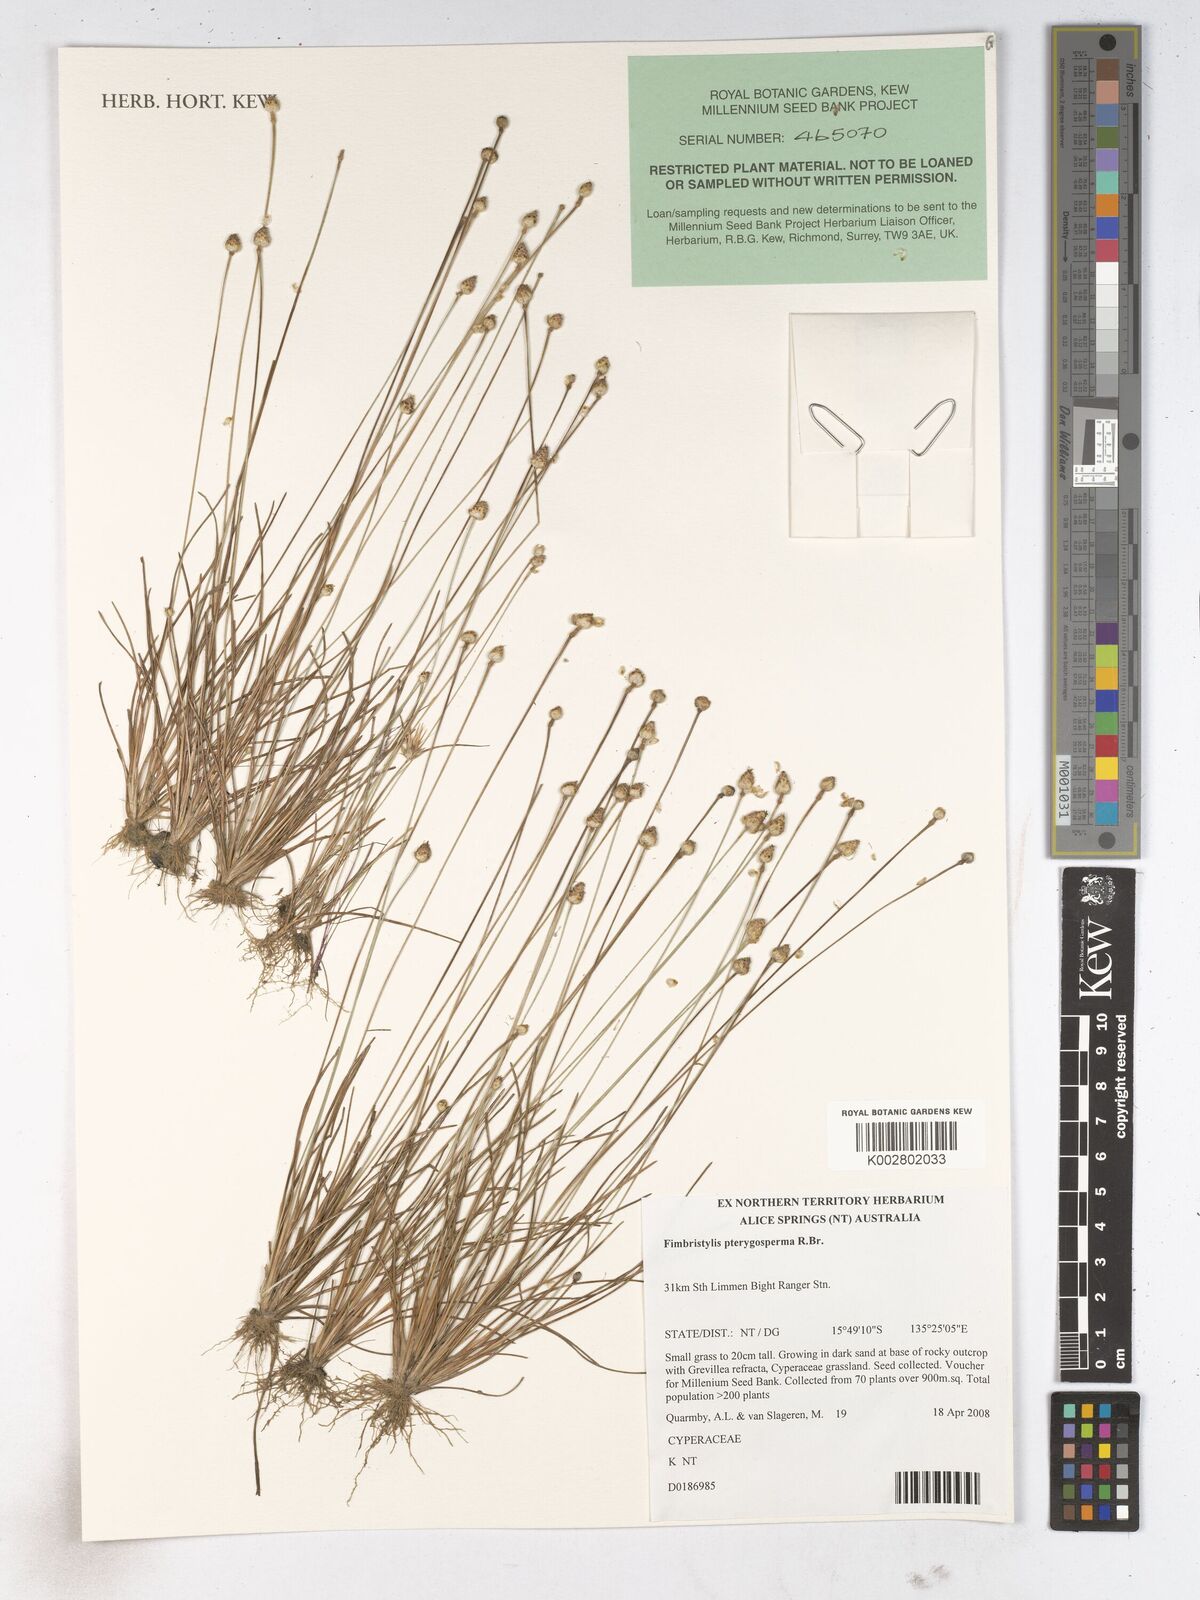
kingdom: Plantae
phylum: Tracheophyta
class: Liliopsida
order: Poales
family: Cyperaceae
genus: Fimbristylis
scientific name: Fimbristylis pterigosperma
